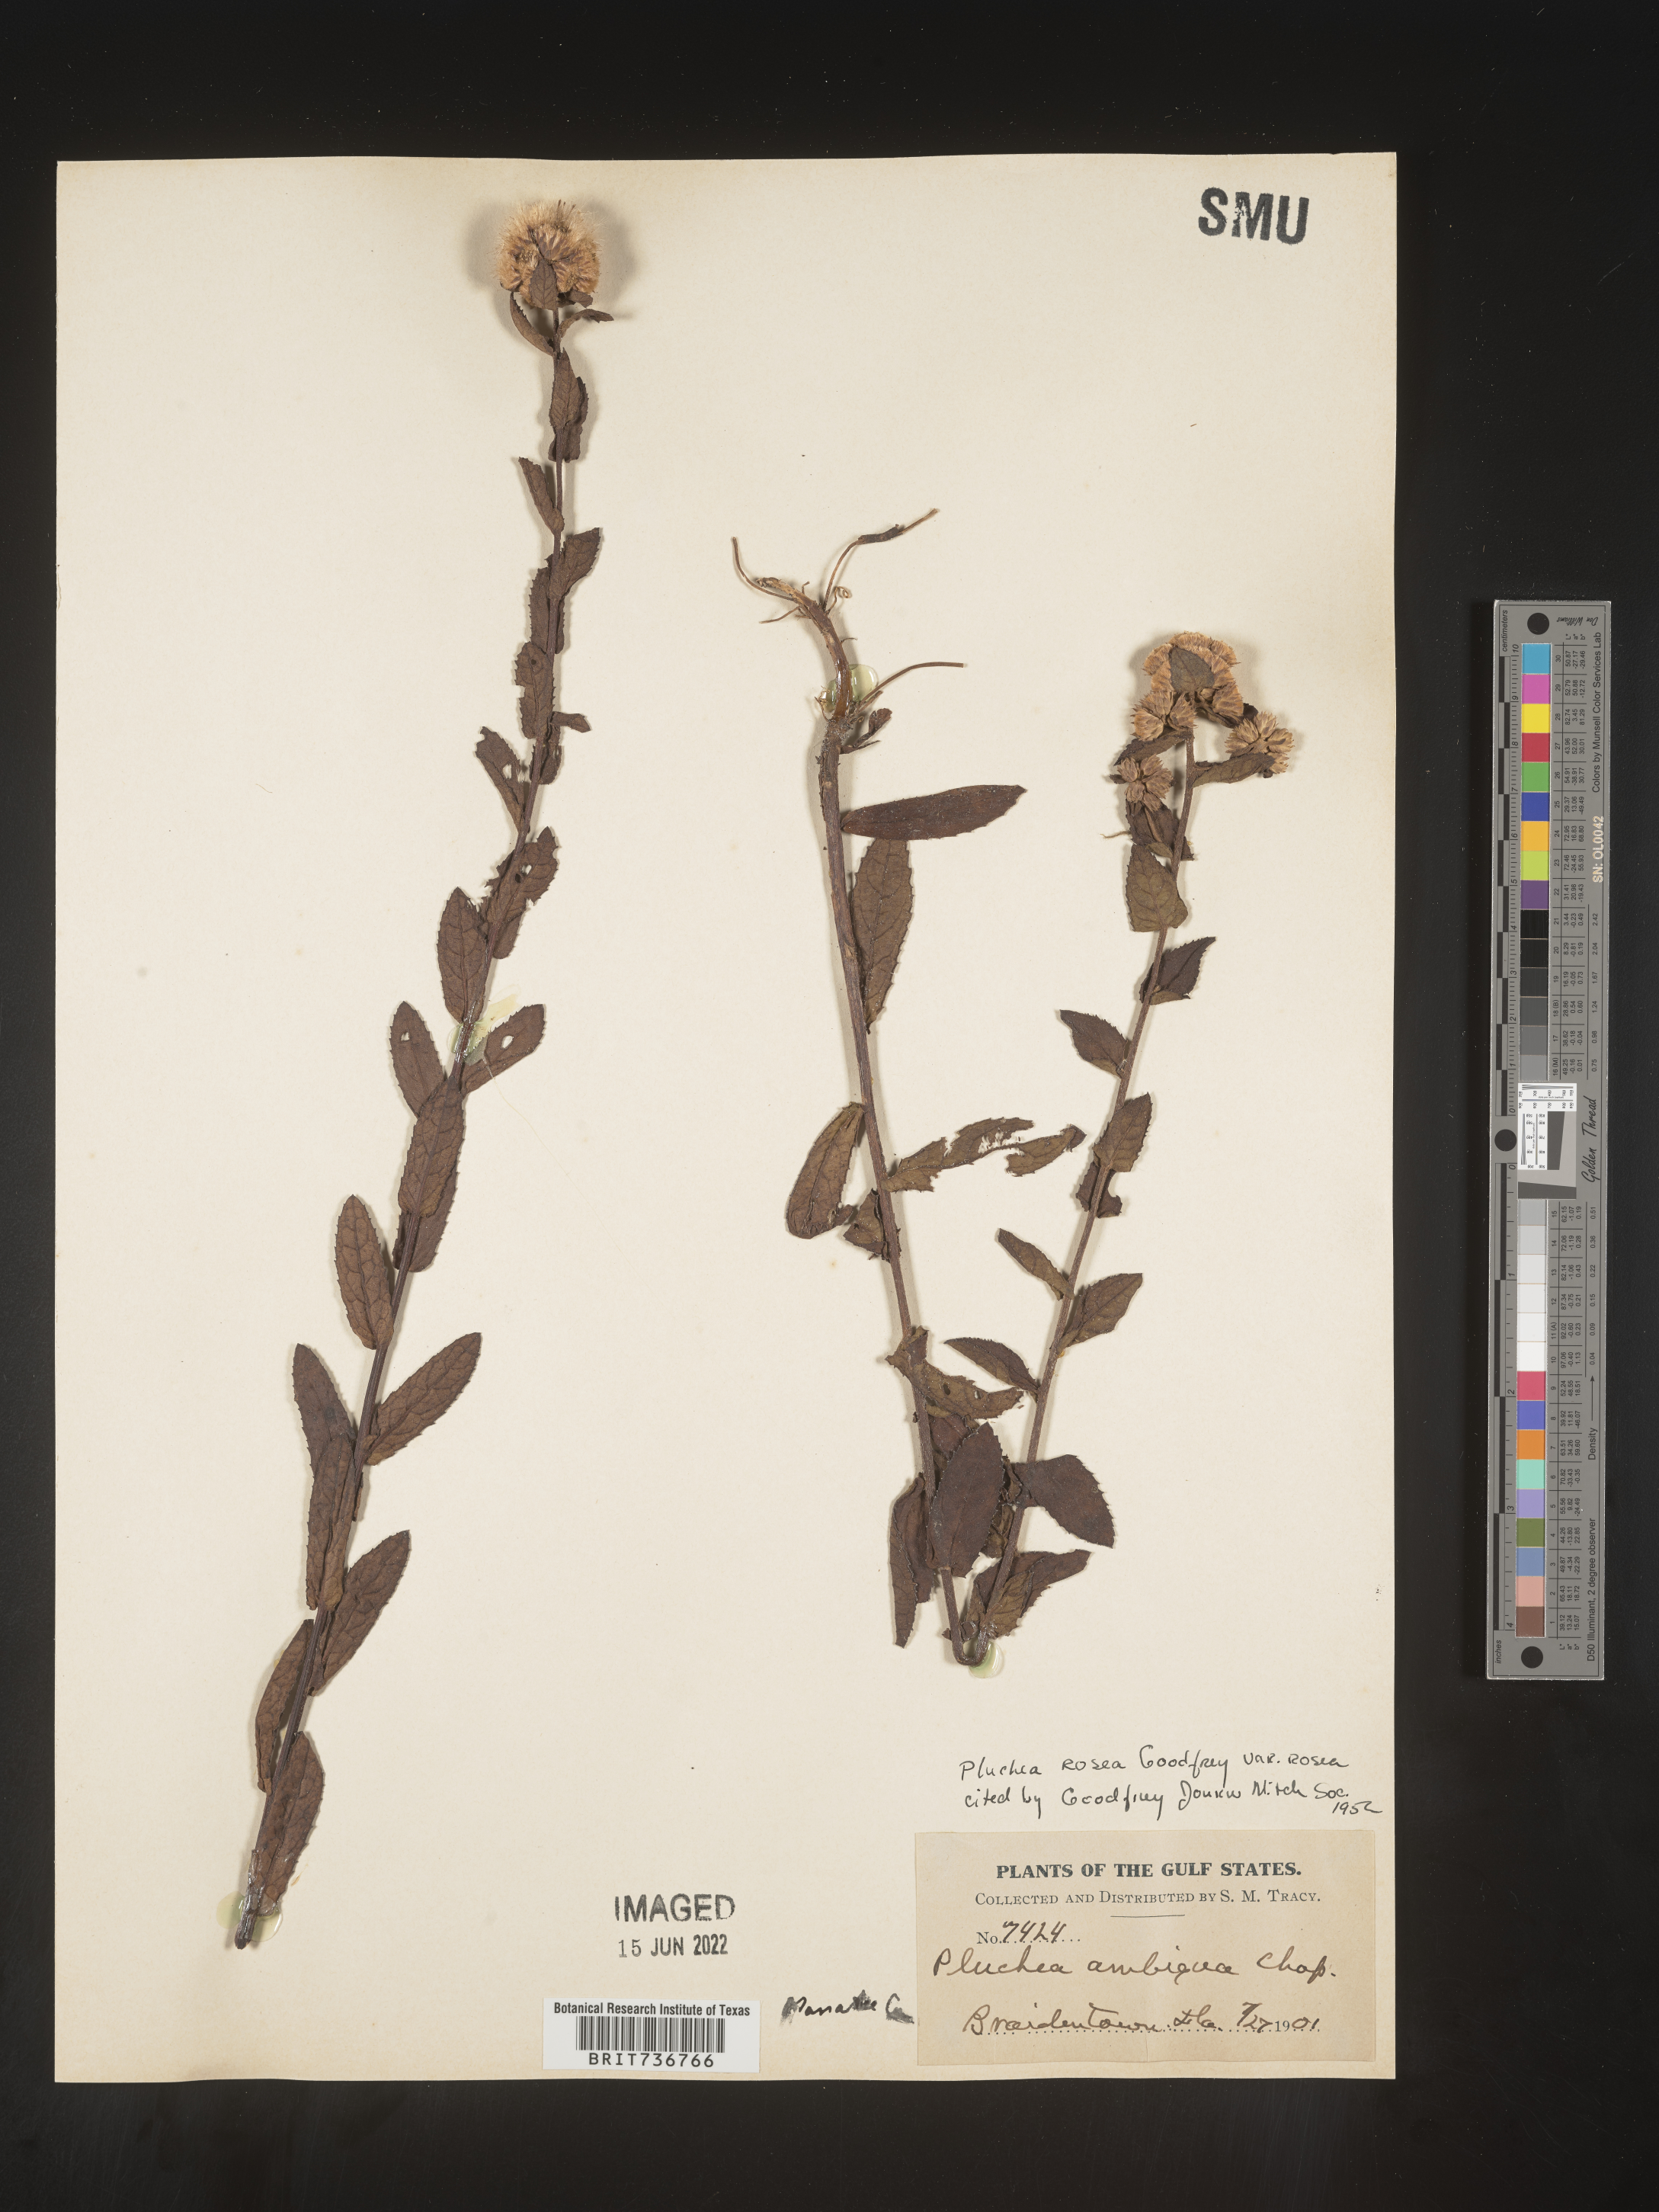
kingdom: Plantae
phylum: Tracheophyta
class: Magnoliopsida
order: Asterales
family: Asteraceae
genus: Pluchea
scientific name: Pluchea baccharis
